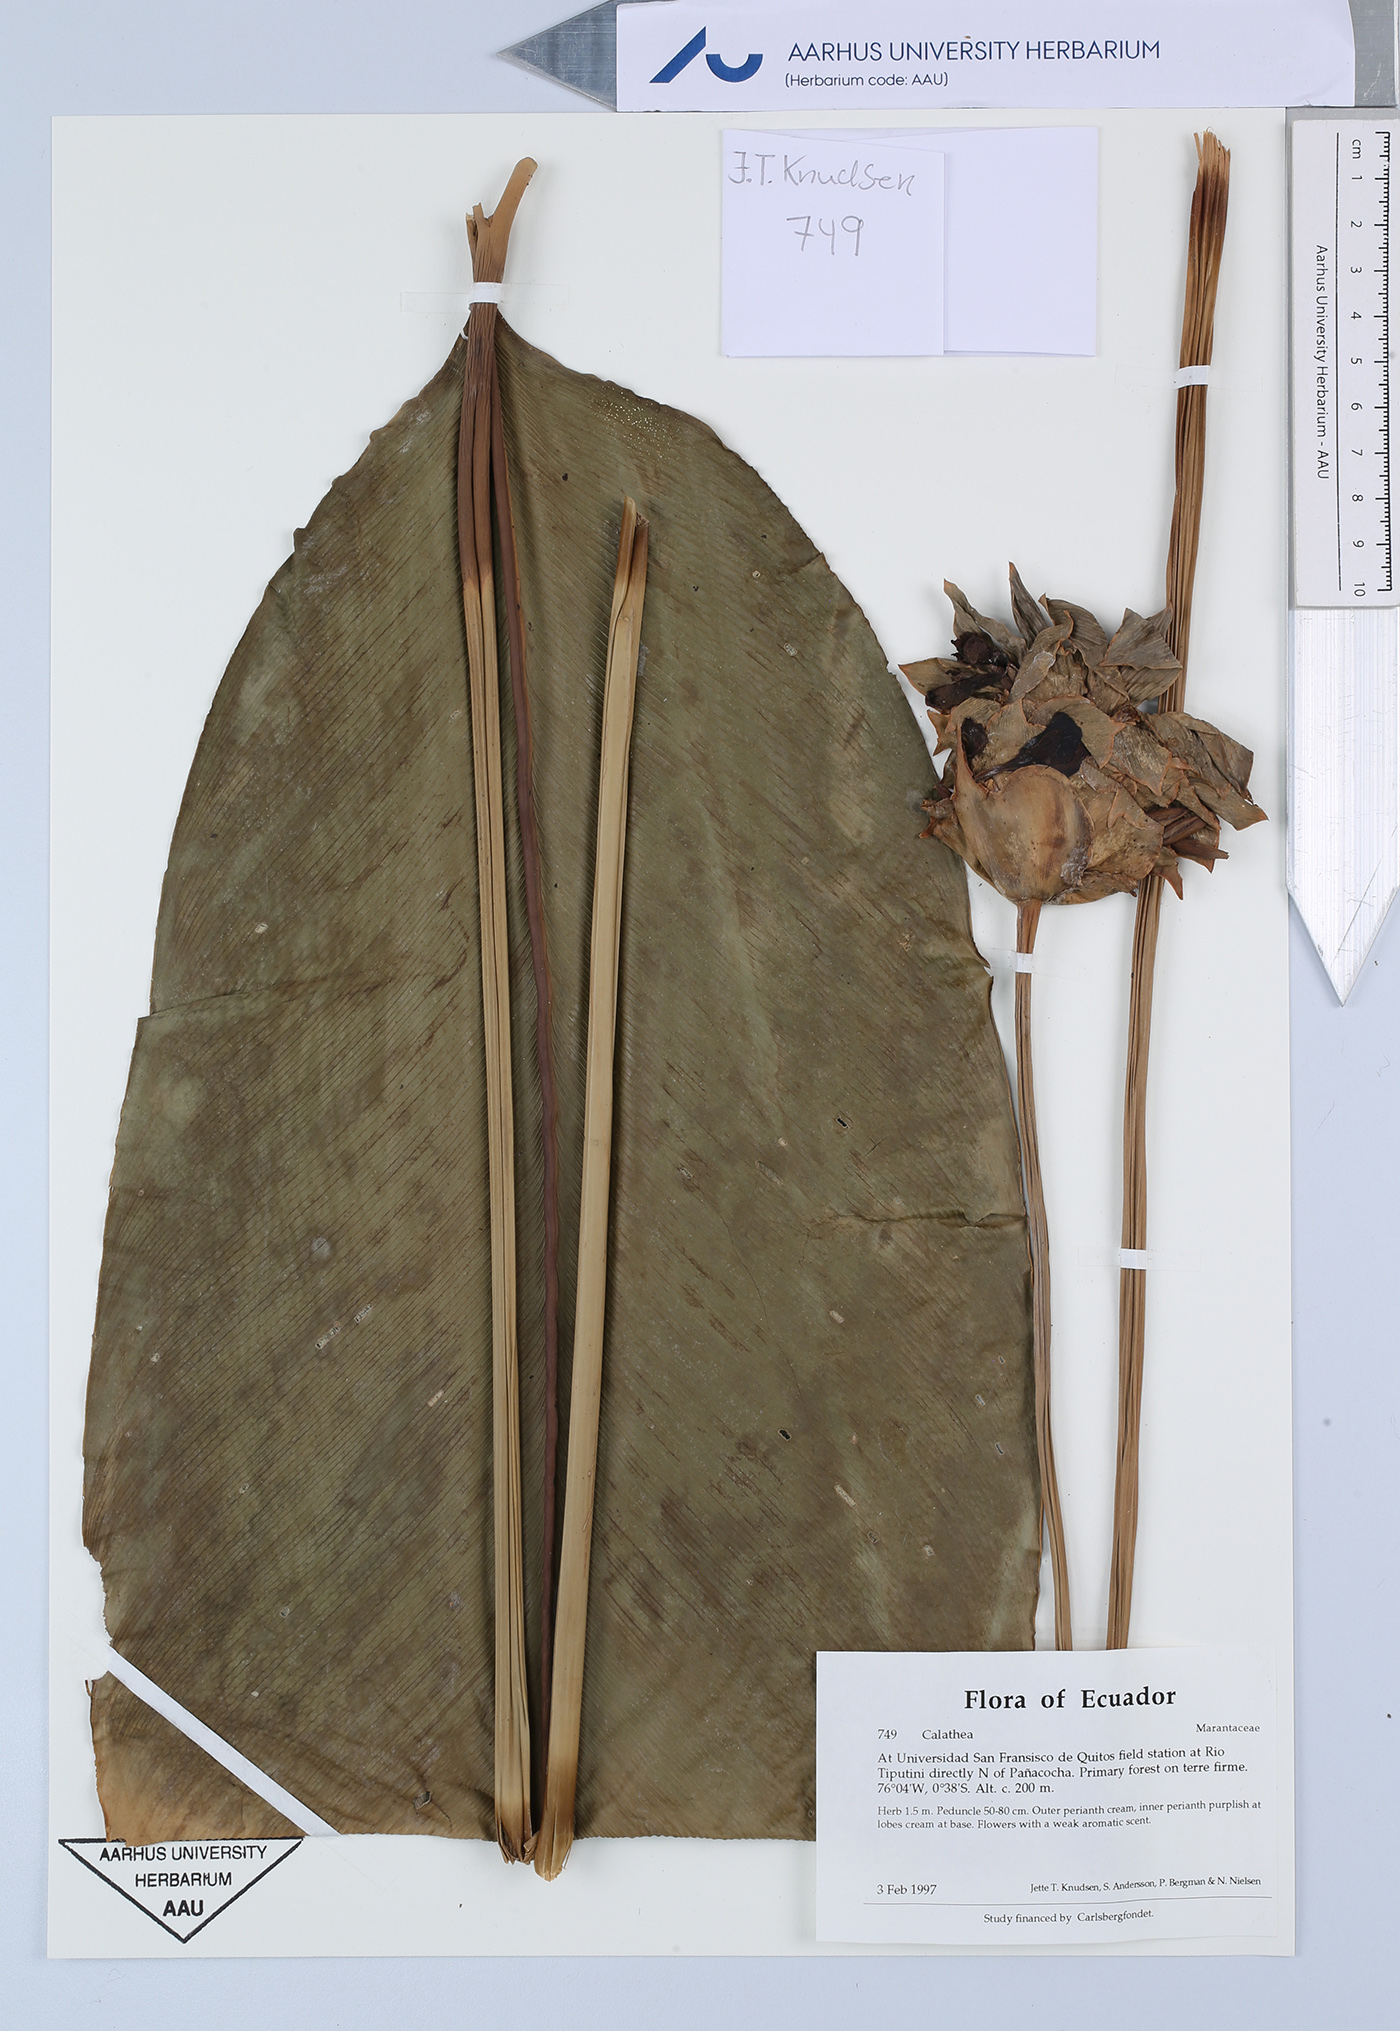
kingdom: Plantae
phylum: Tracheophyta
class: Liliopsida
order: Zingiberales
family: Marantaceae
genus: Calathea
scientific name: Calathea
